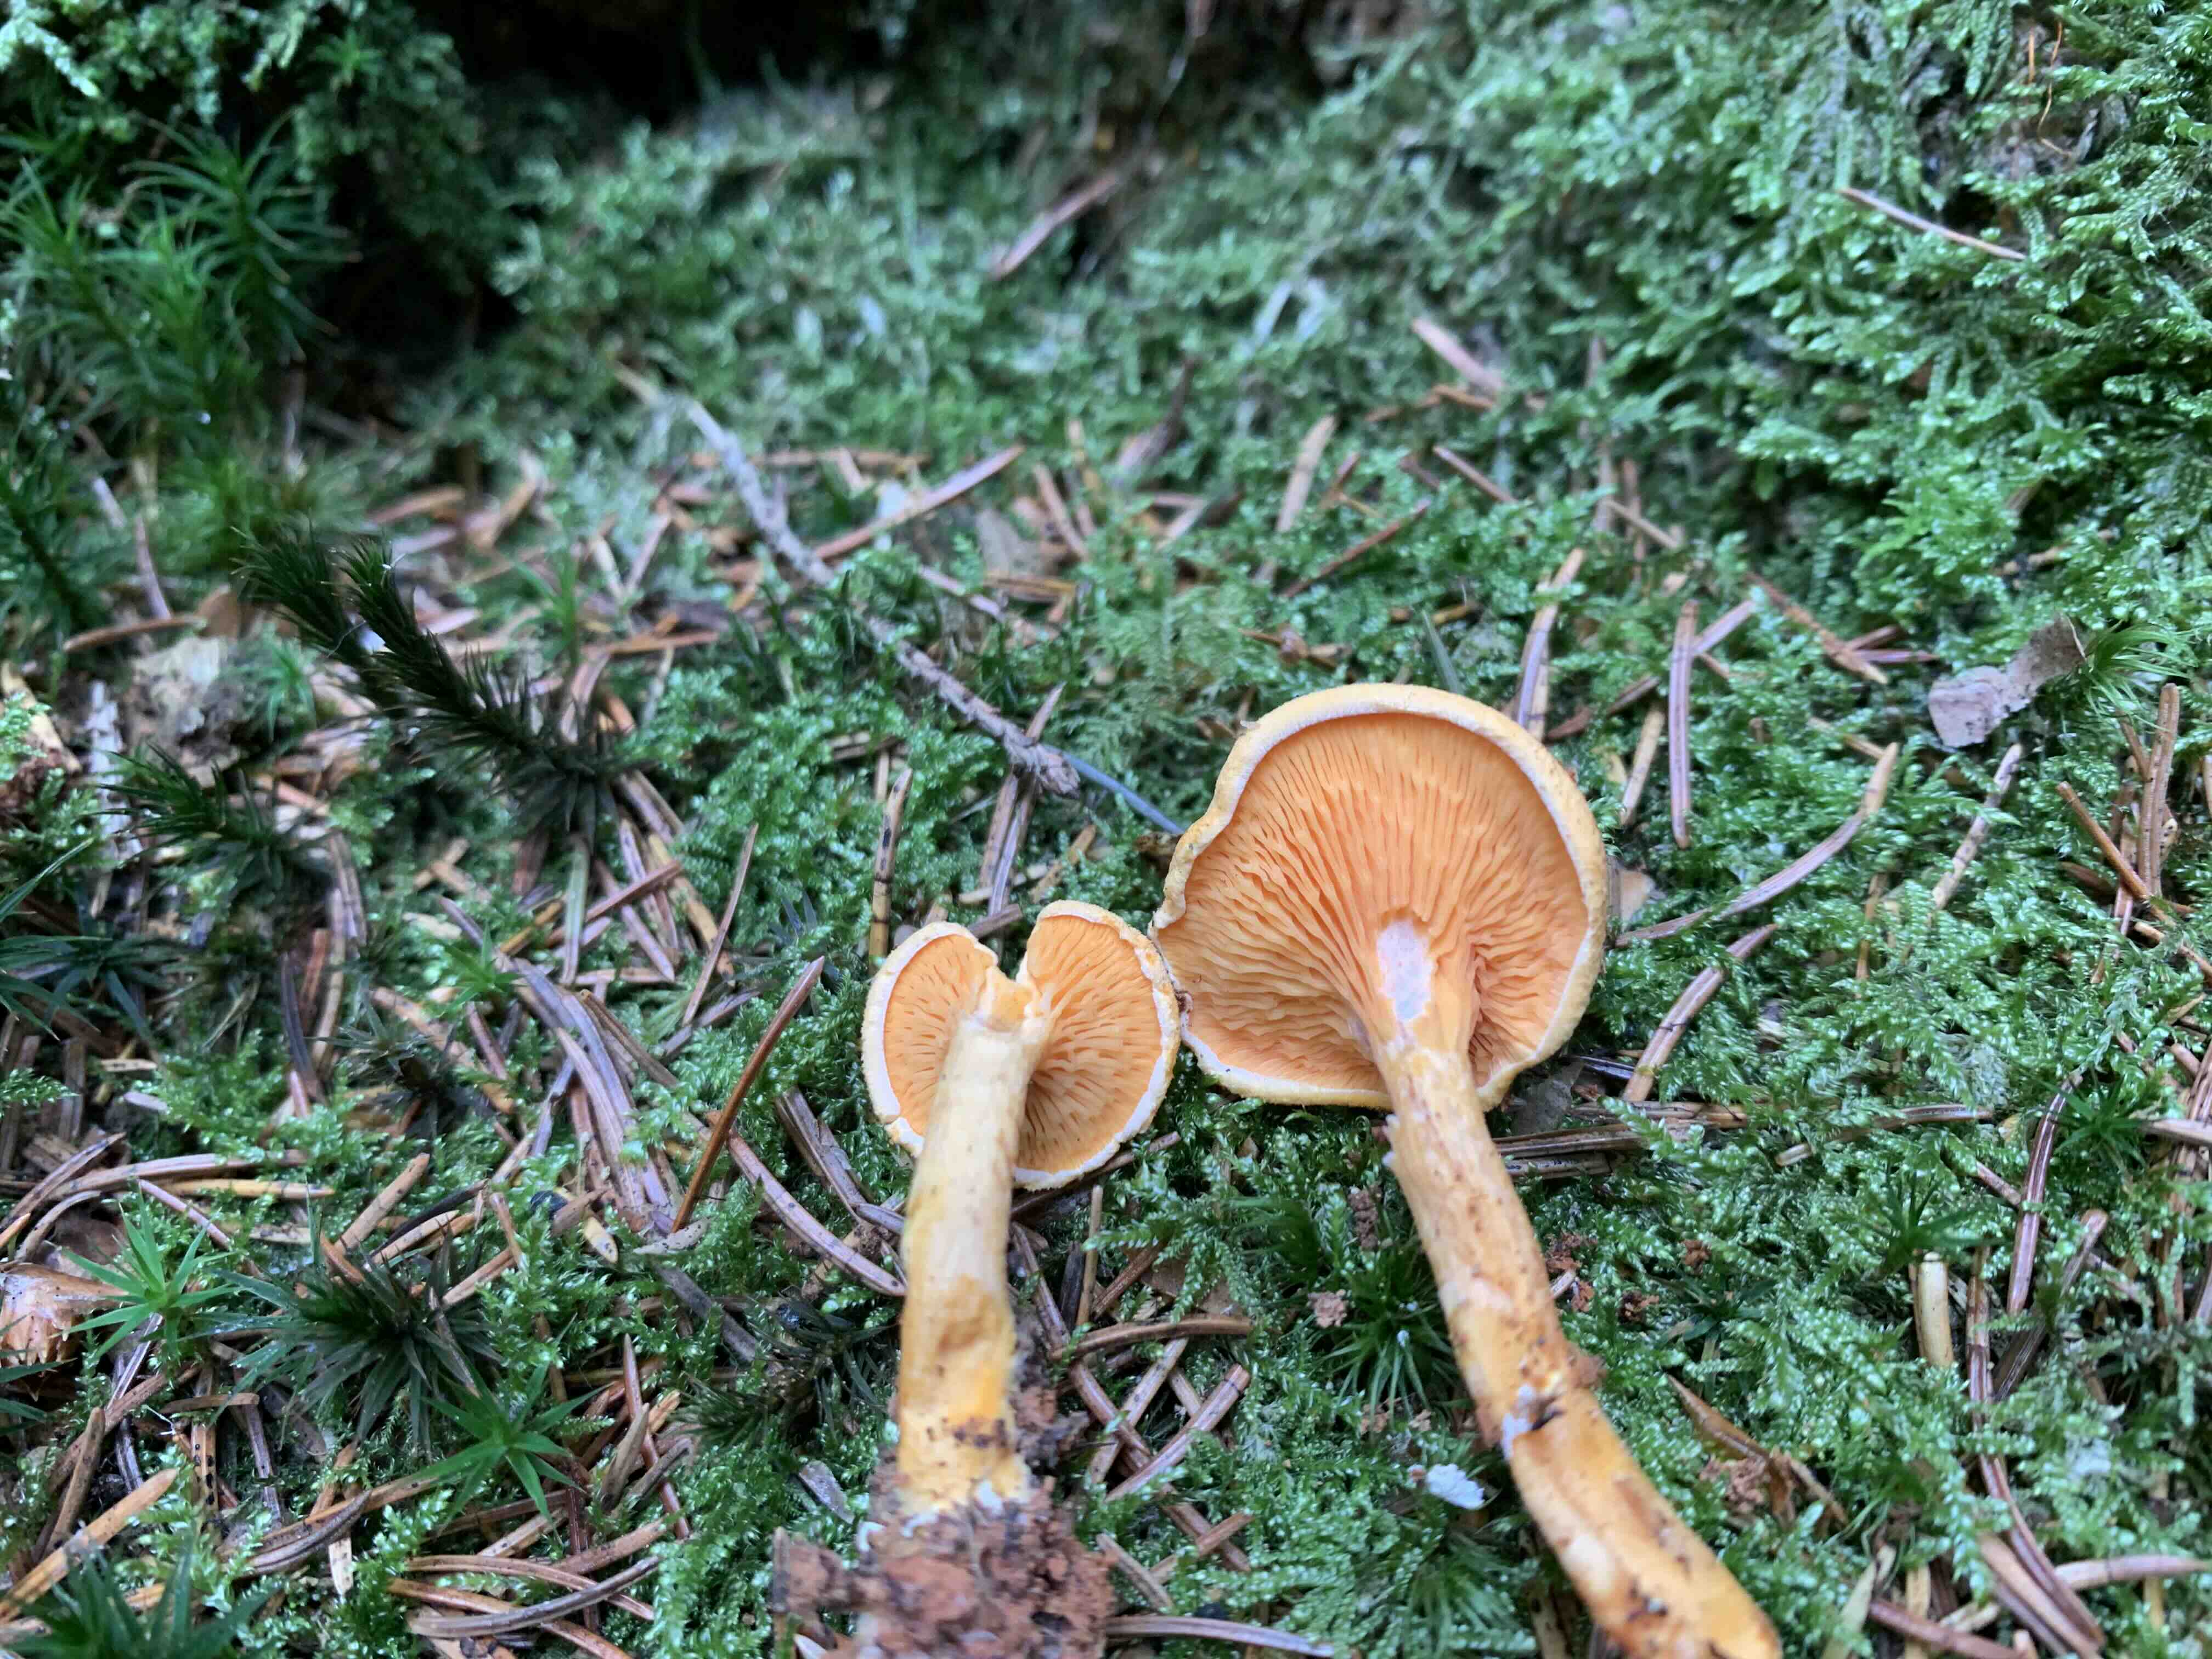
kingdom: Fungi
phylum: Basidiomycota
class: Agaricomycetes
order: Boletales
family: Hygrophoropsidaceae
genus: Hygrophoropsis
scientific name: Hygrophoropsis aurantiaca
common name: almindelig orangekantarel
